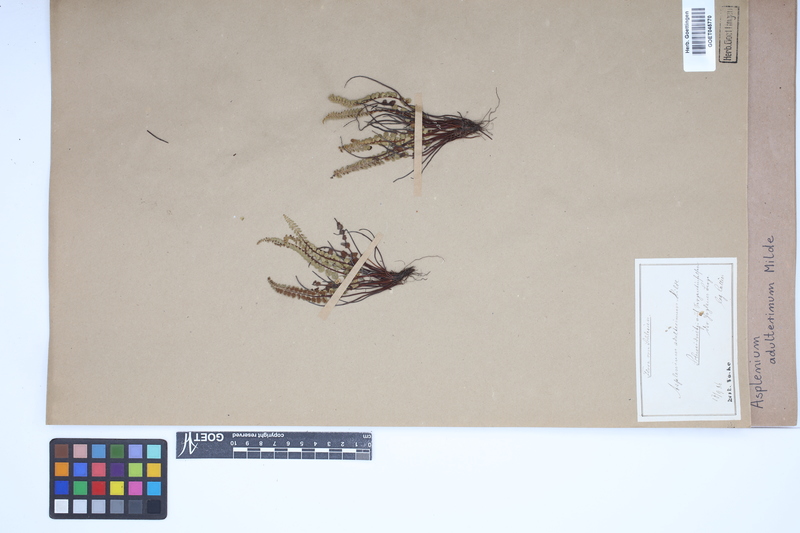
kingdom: Plantae
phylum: Tracheophyta
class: Polypodiopsida
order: Polypodiales
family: Aspleniaceae
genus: Asplenium
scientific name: Asplenium adulterinum
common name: Adulterated spleenwort
